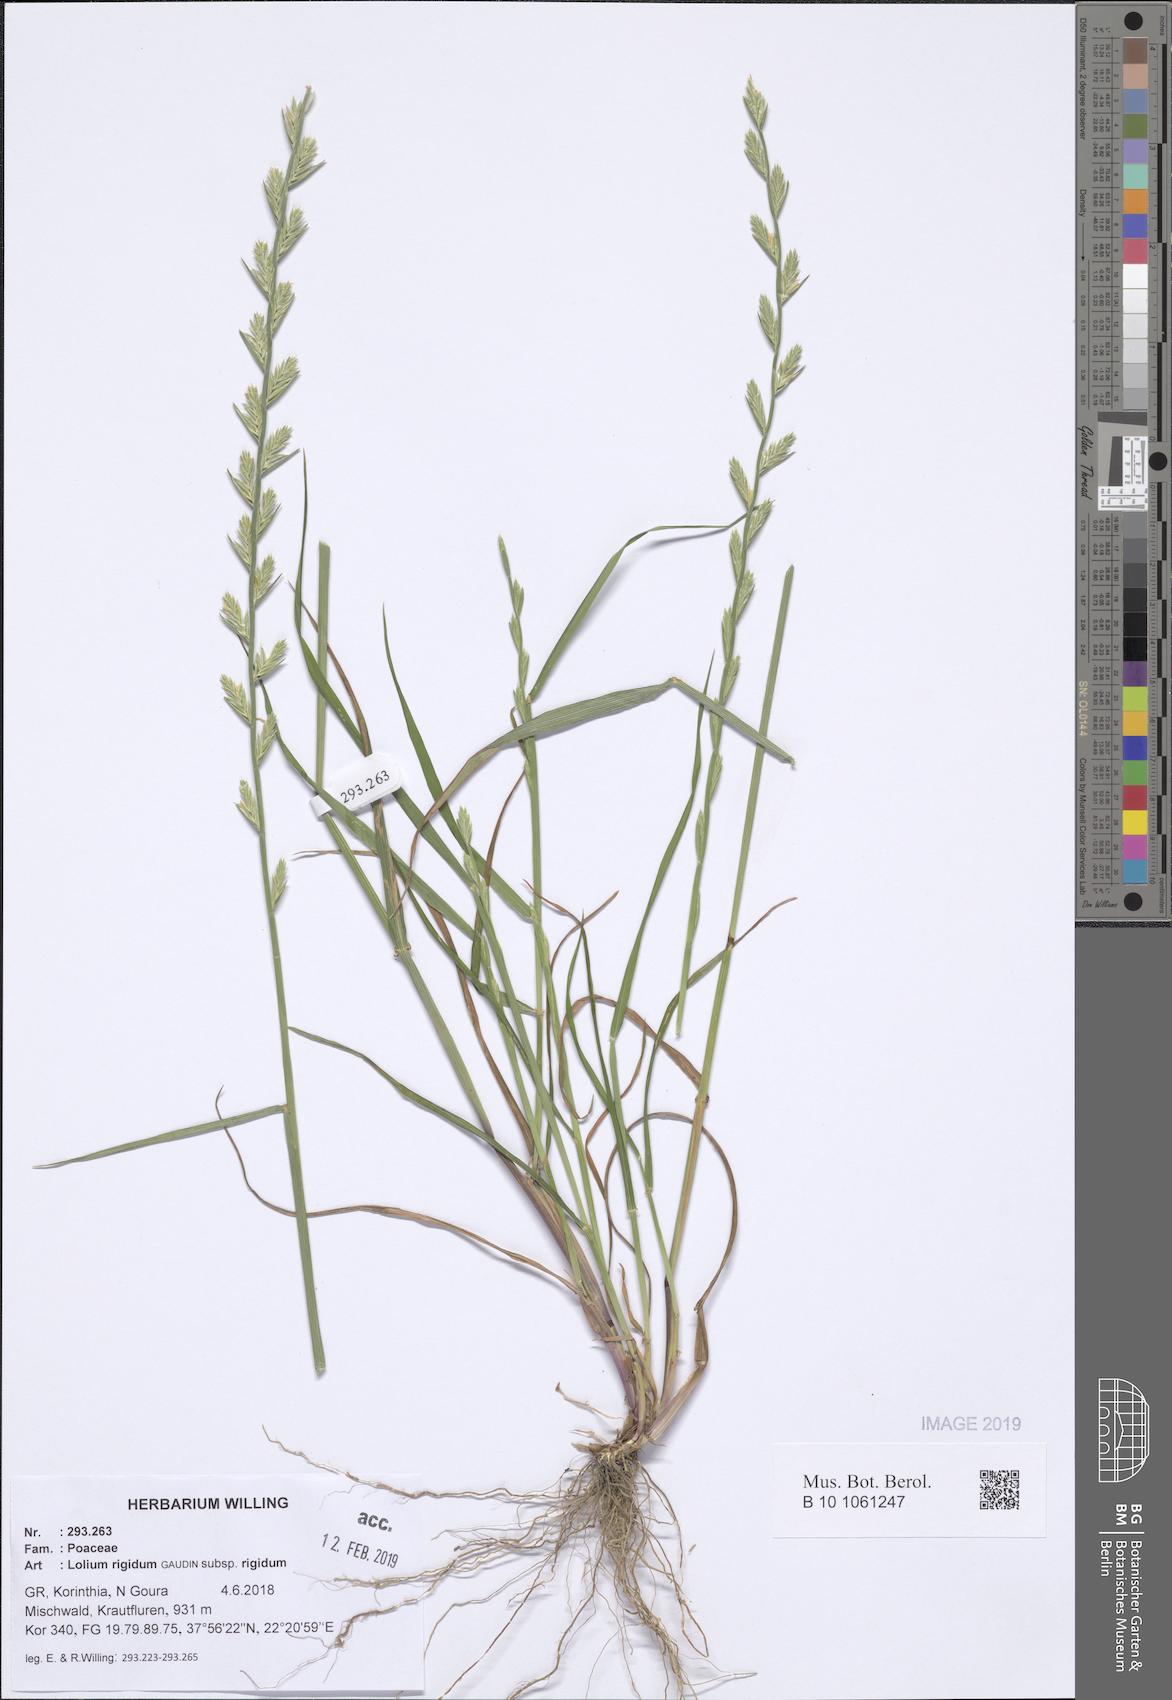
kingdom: Plantae
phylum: Tracheophyta
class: Liliopsida
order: Poales
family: Poaceae
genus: Lolium
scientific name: Lolium rigidum
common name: Wimmera ryegrass
